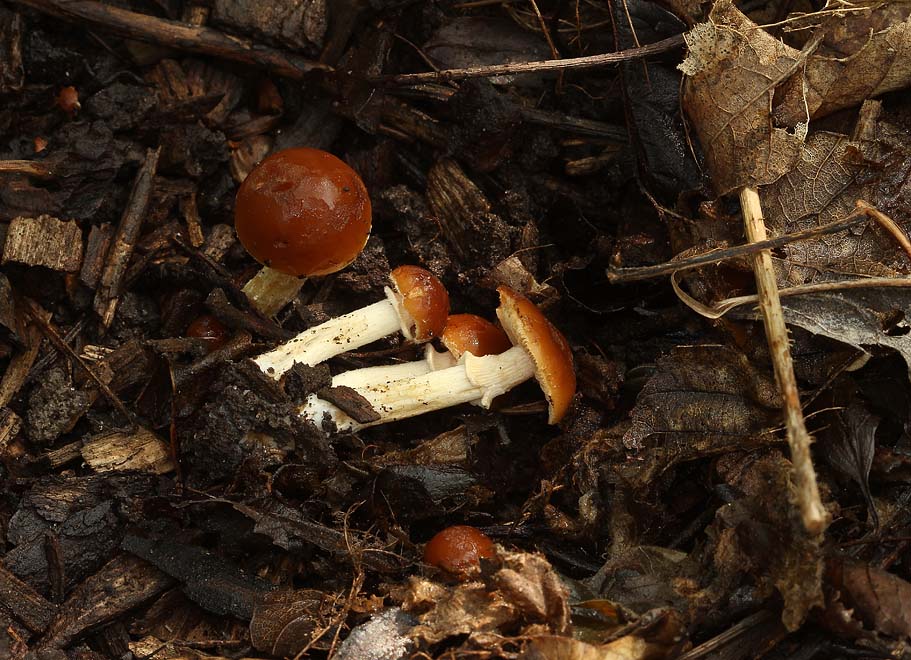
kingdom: Fungi
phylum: Basidiomycota
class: Agaricomycetes
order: Agaricales
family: Bolbitiaceae
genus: Conocybe
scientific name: Conocybe aporos
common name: tidlig dansehat
